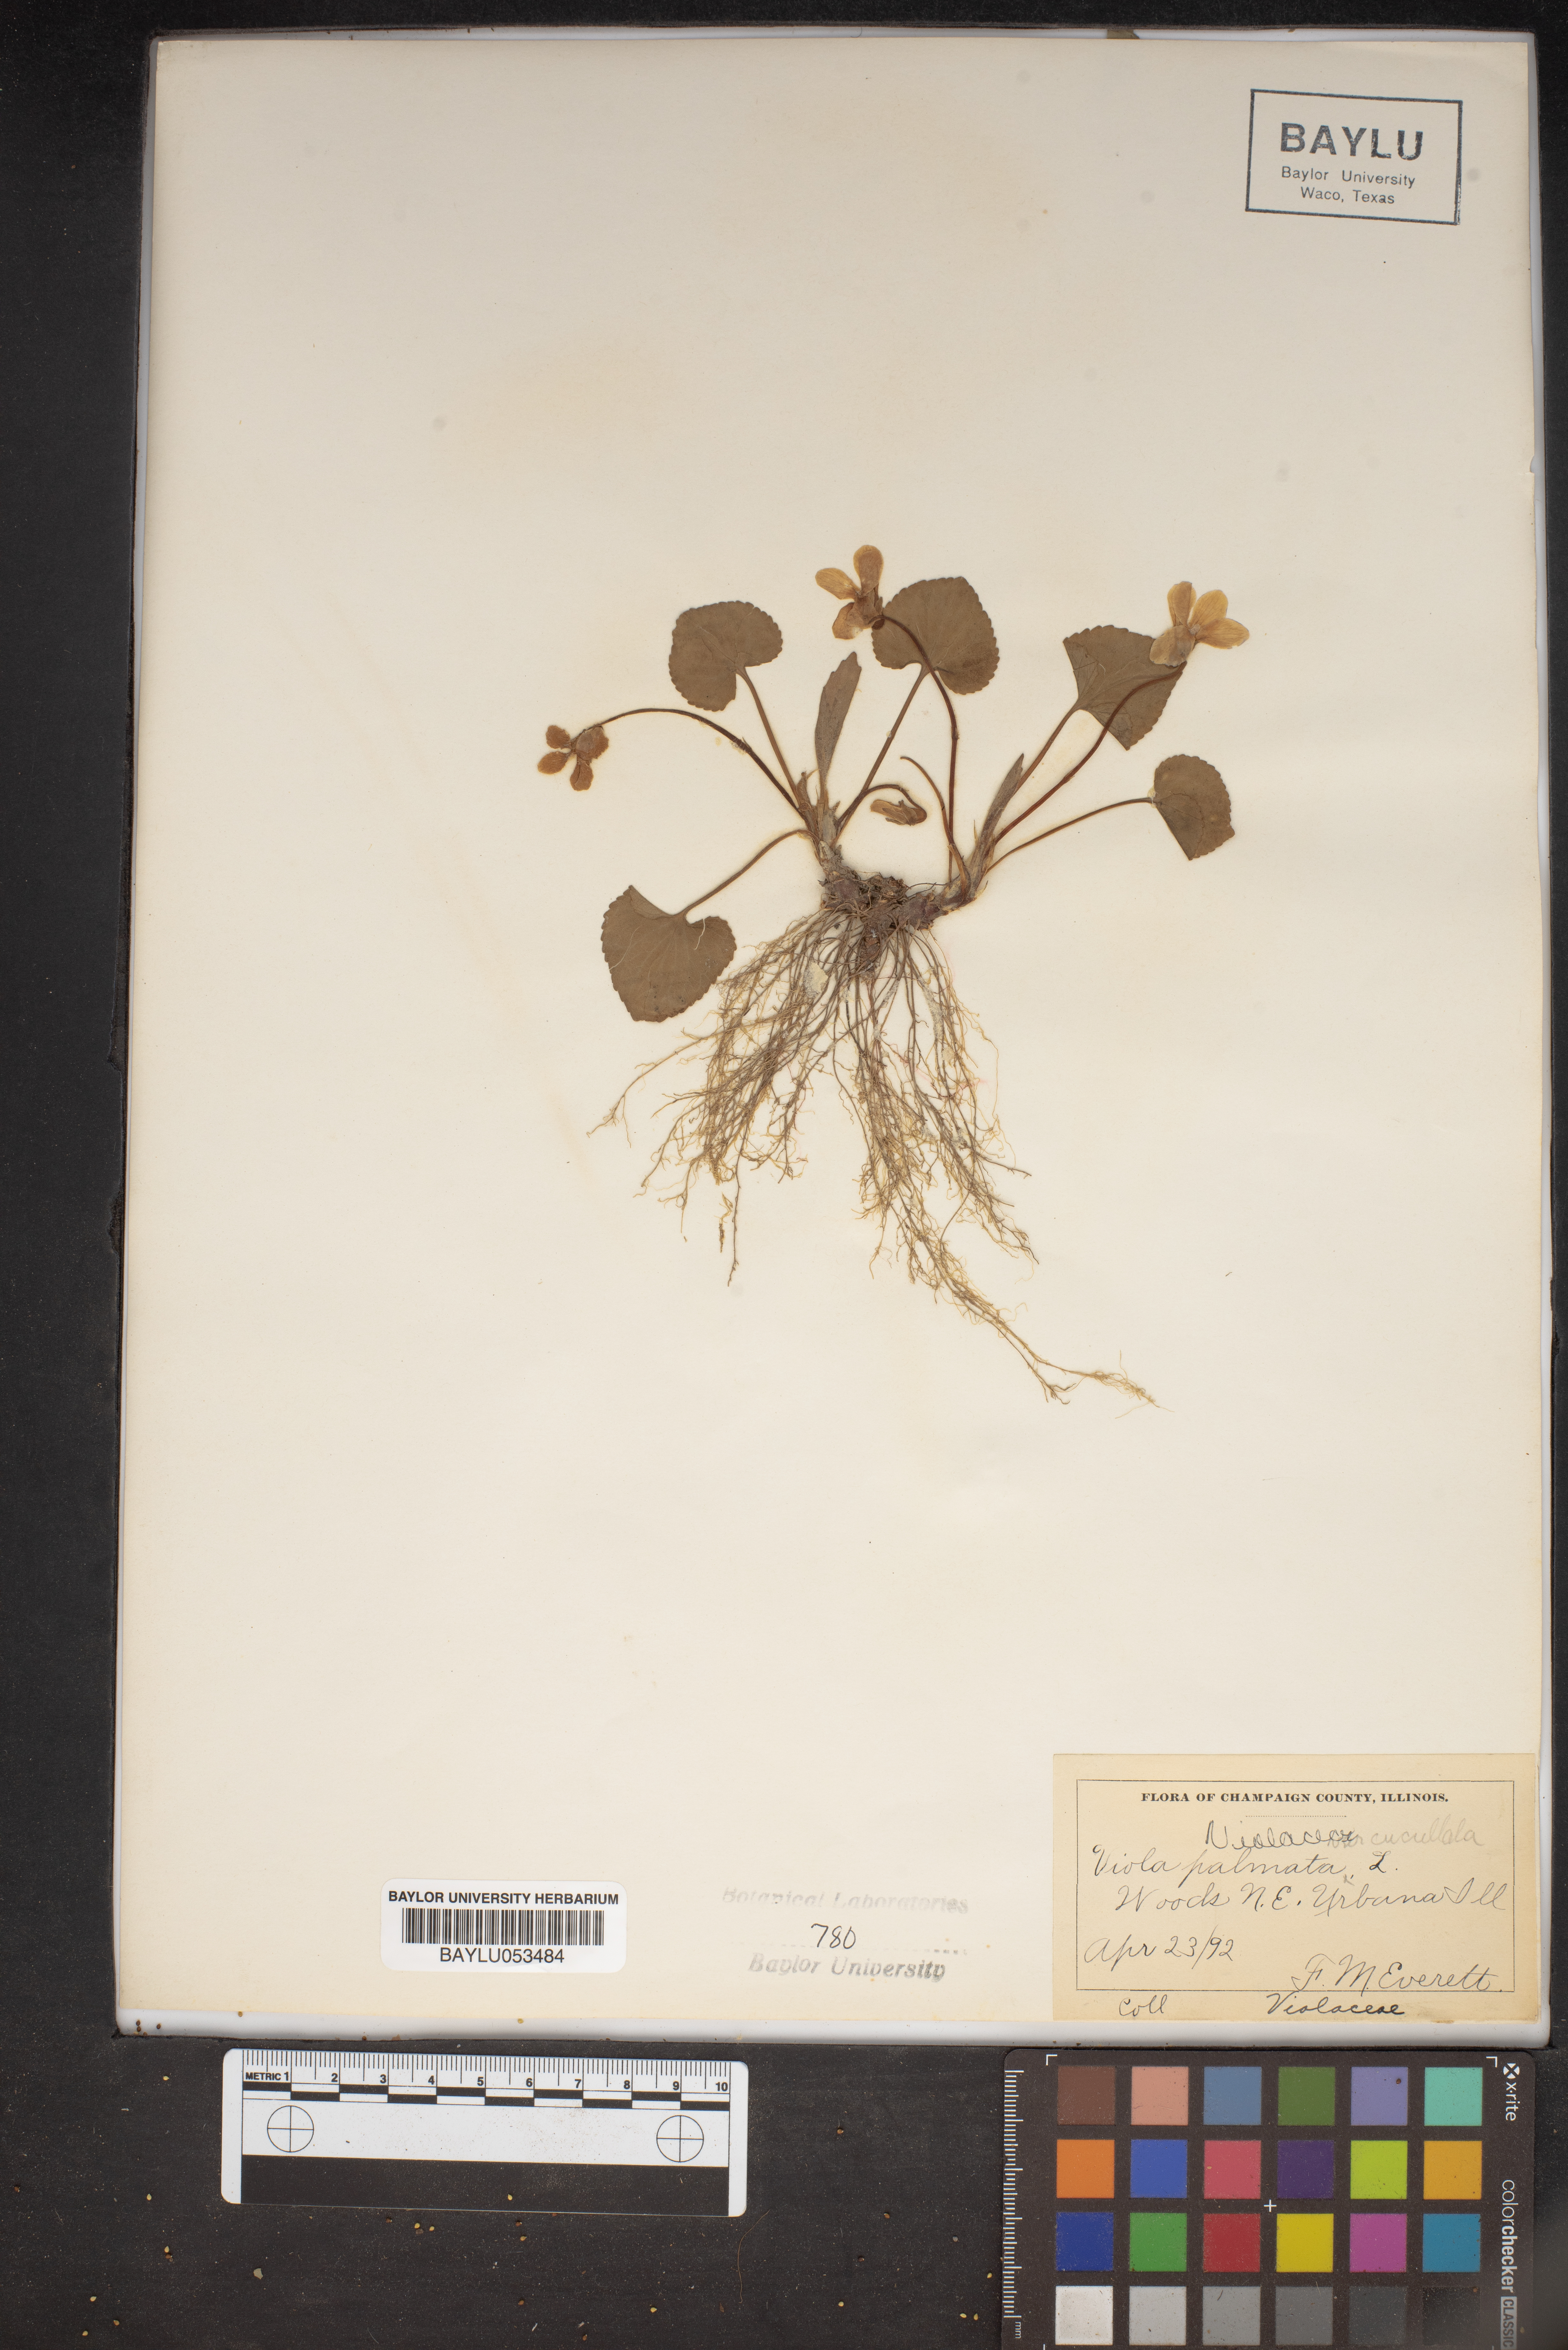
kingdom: Plantae
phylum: Tracheophyta
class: Magnoliopsida
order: Malpighiales
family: Violaceae
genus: Viola
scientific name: Viola palmata
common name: Early blue violet
